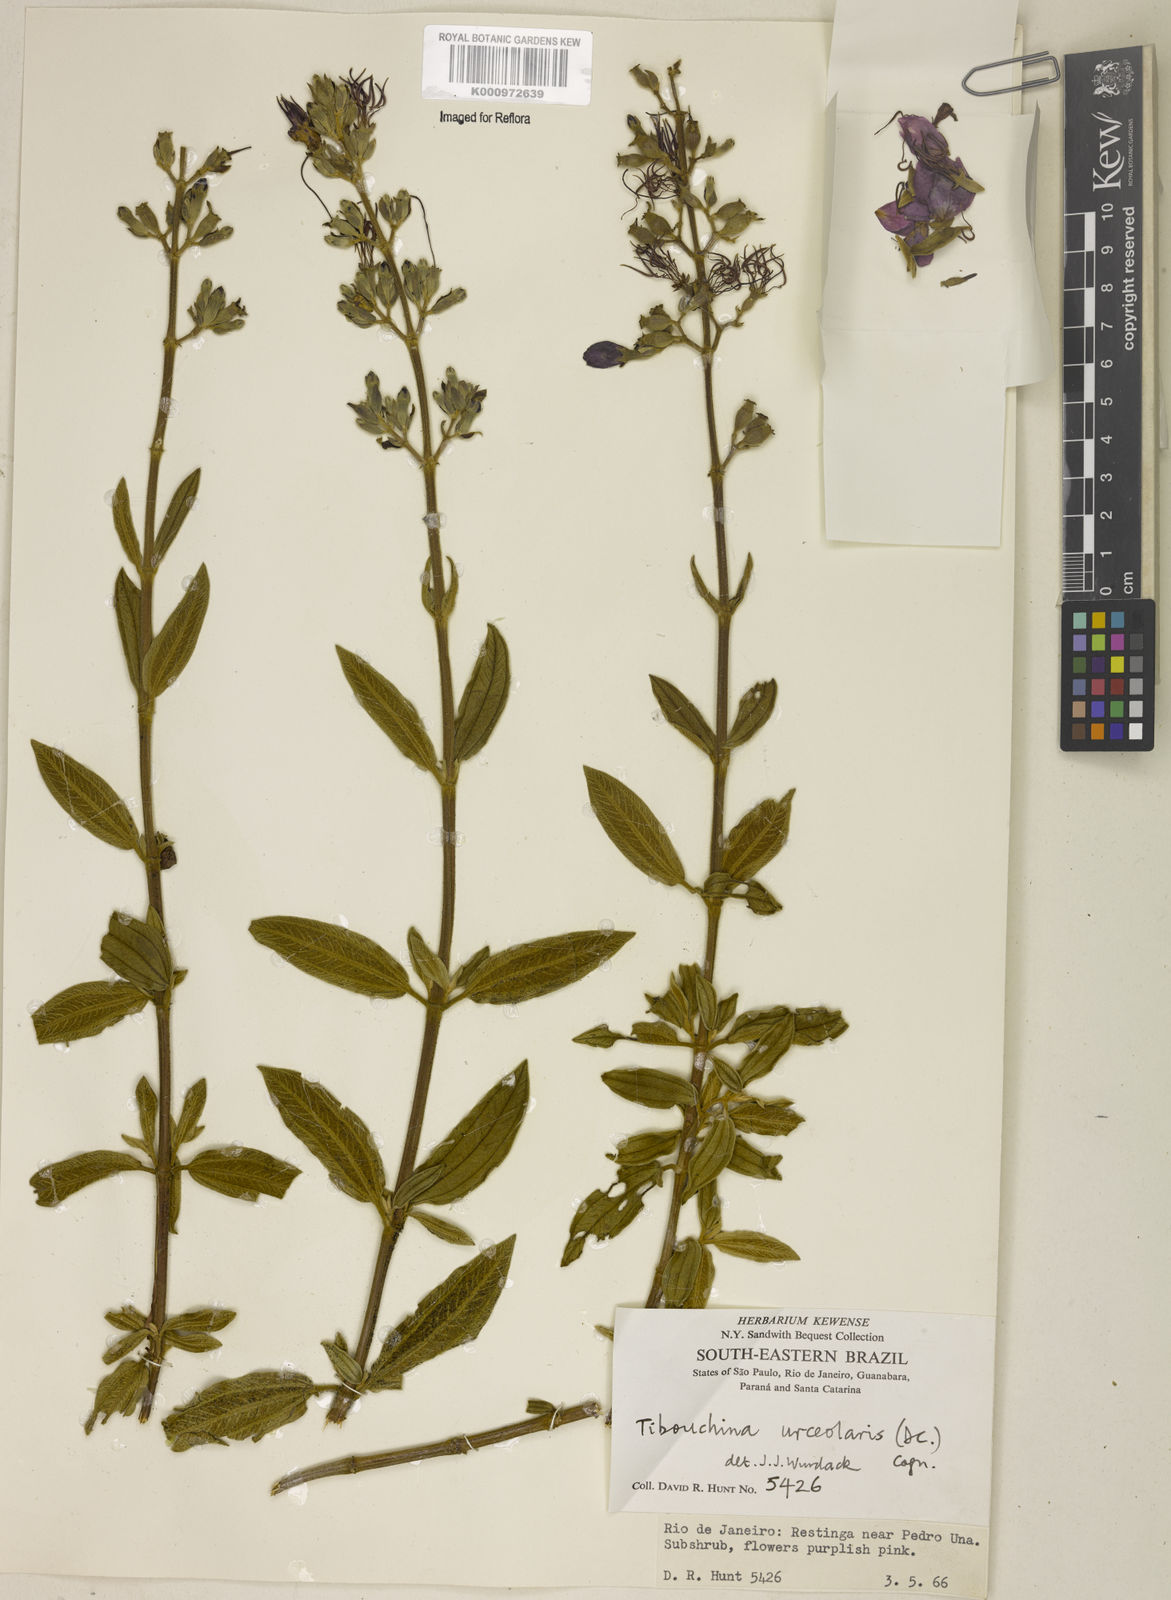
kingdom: Plantae
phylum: Tracheophyta
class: Magnoliopsida
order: Myrtales
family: Melastomataceae
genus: Pleroma
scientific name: Pleroma urceolare
